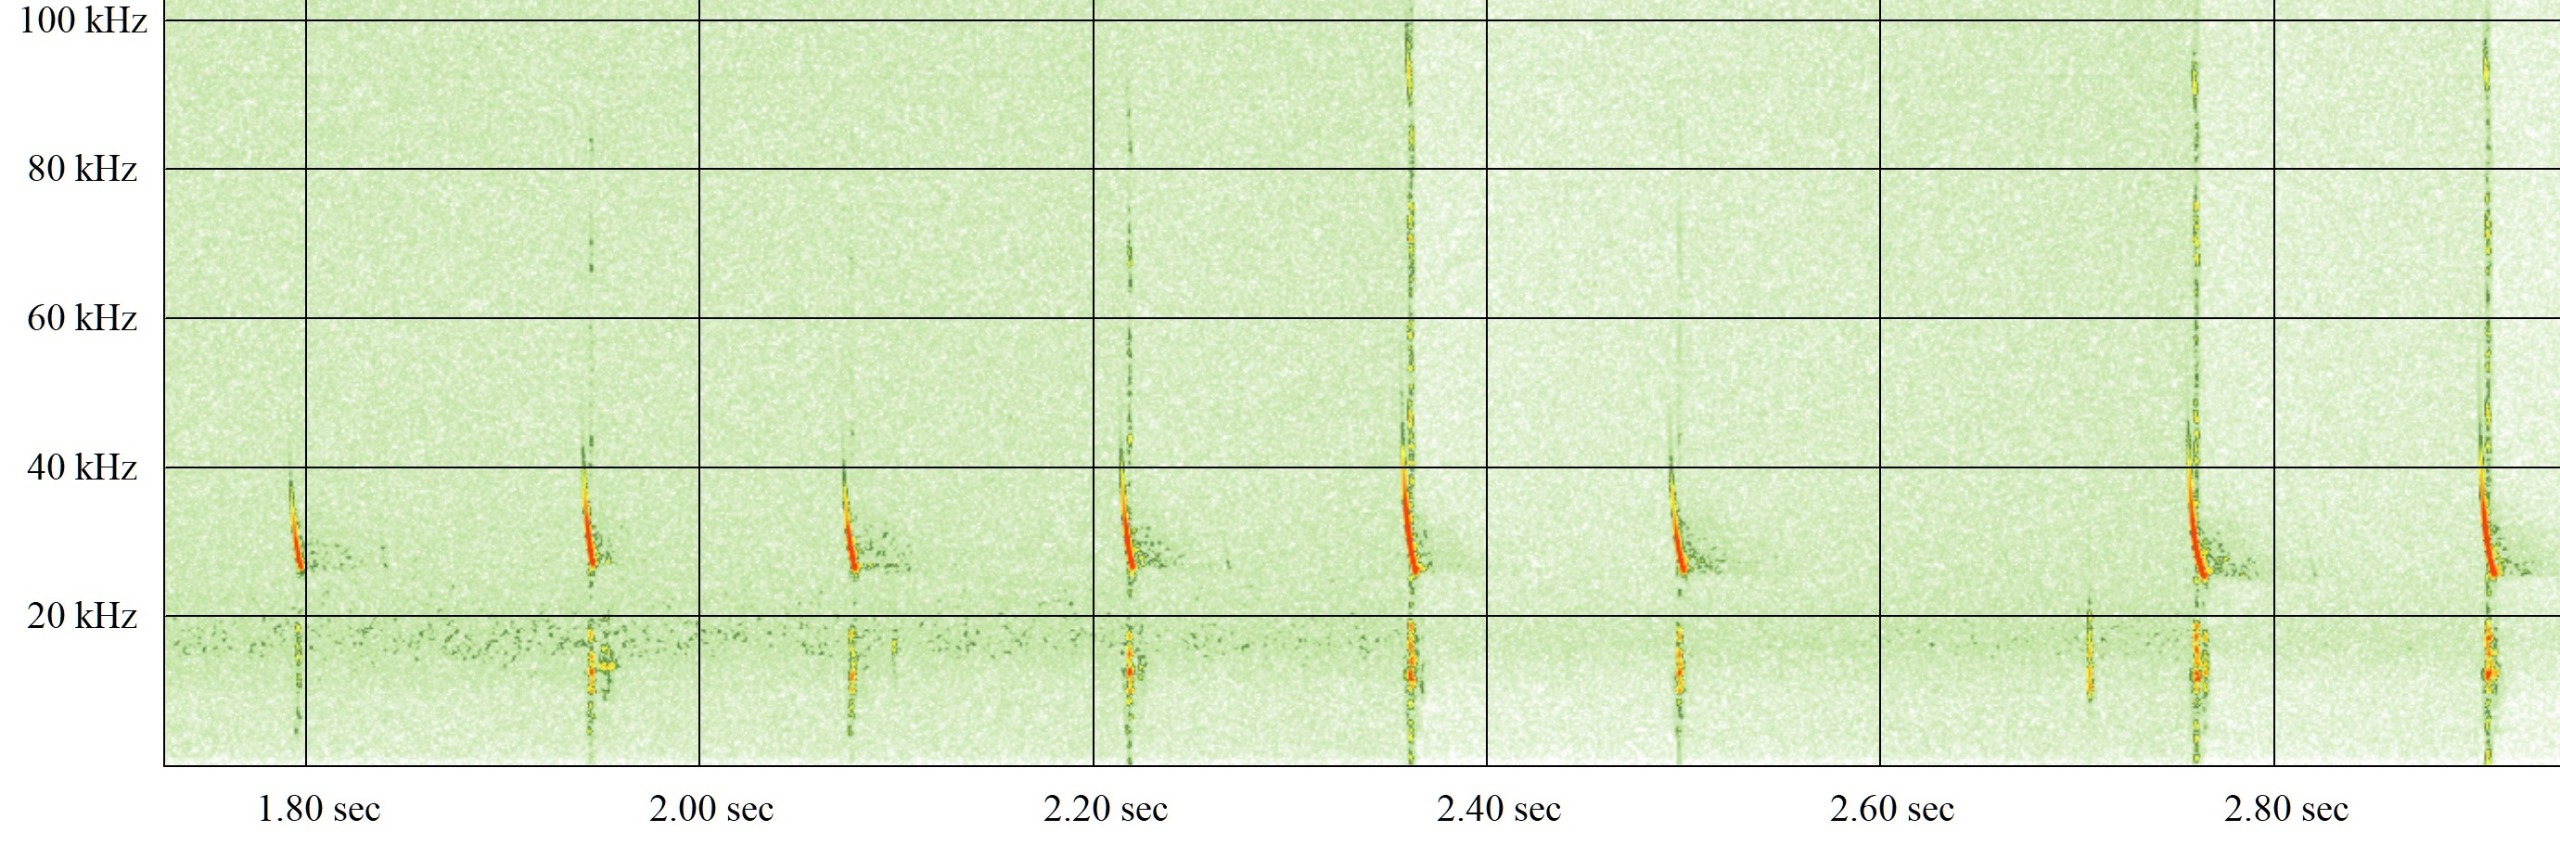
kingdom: Animalia
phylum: Chordata
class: Mammalia
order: Chiroptera
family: Vespertilionidae
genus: Eptesicus
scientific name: Eptesicus serotinus
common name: Sydflagermus
